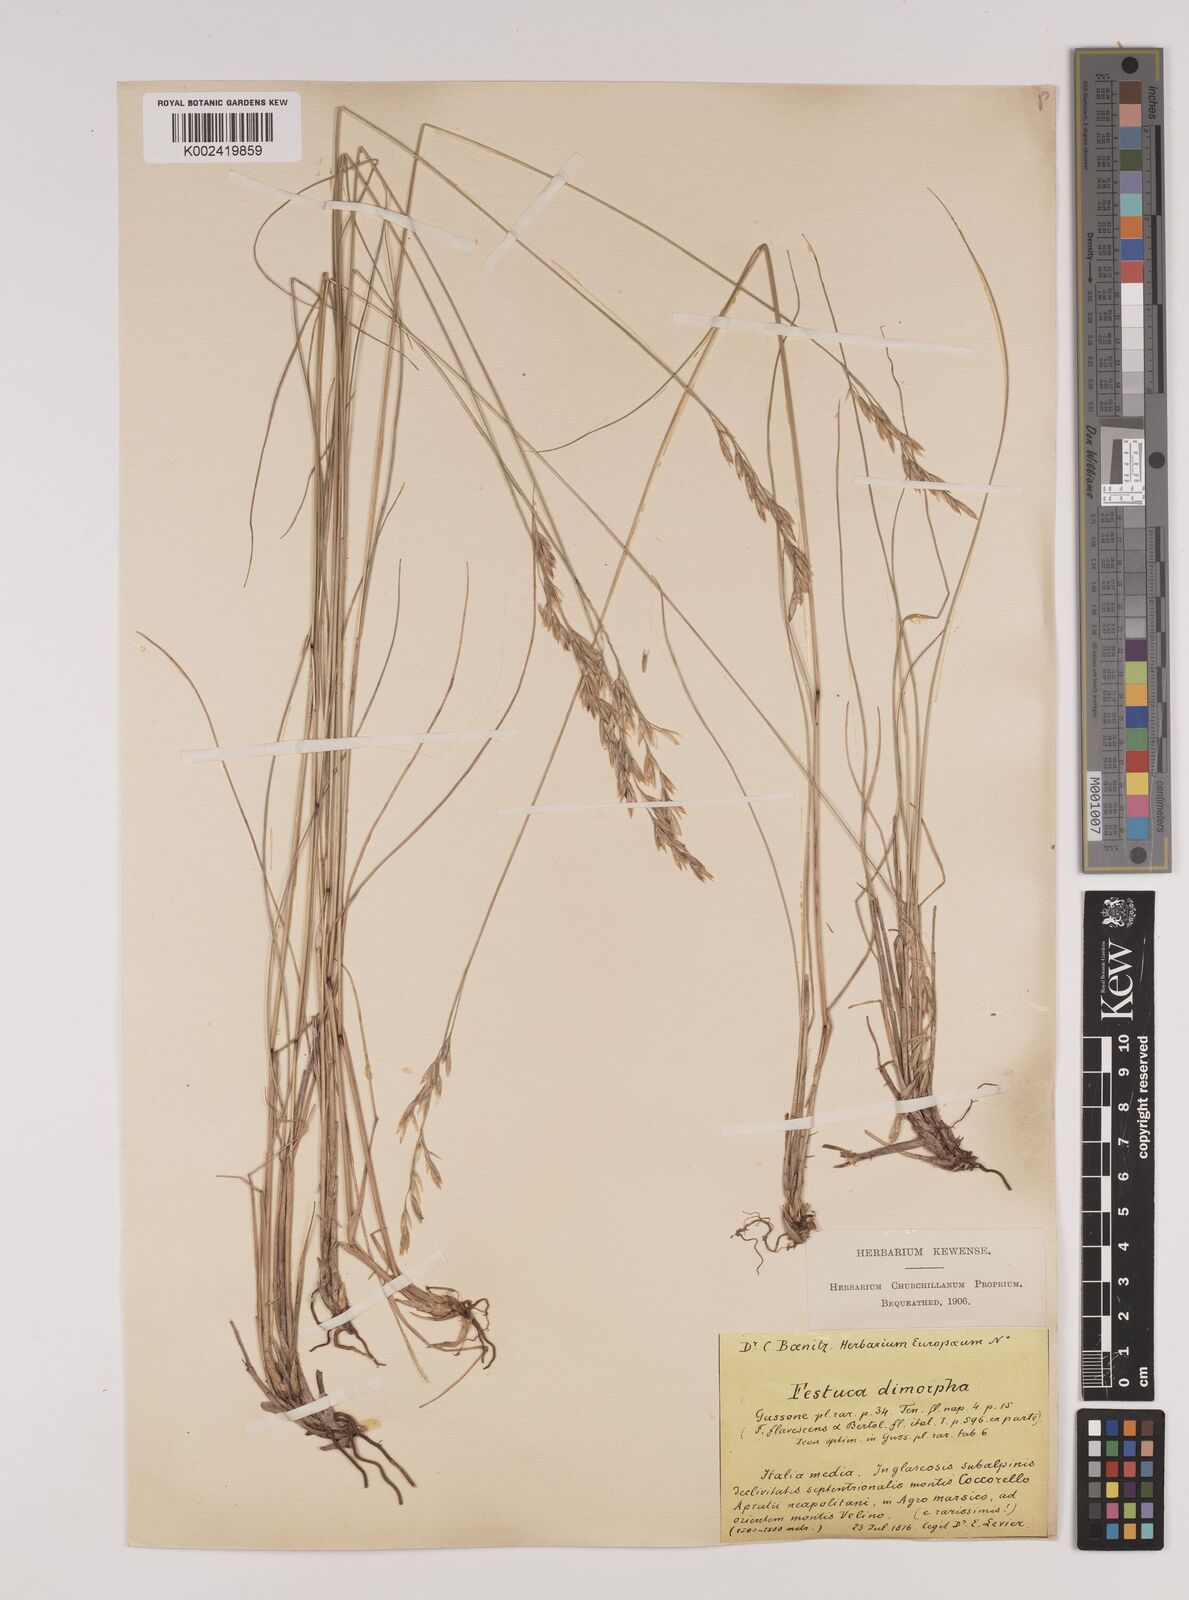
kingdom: Plantae
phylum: Tracheophyta
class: Liliopsida
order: Poales
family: Poaceae
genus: Festuca
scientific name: Festuca dimorpha
